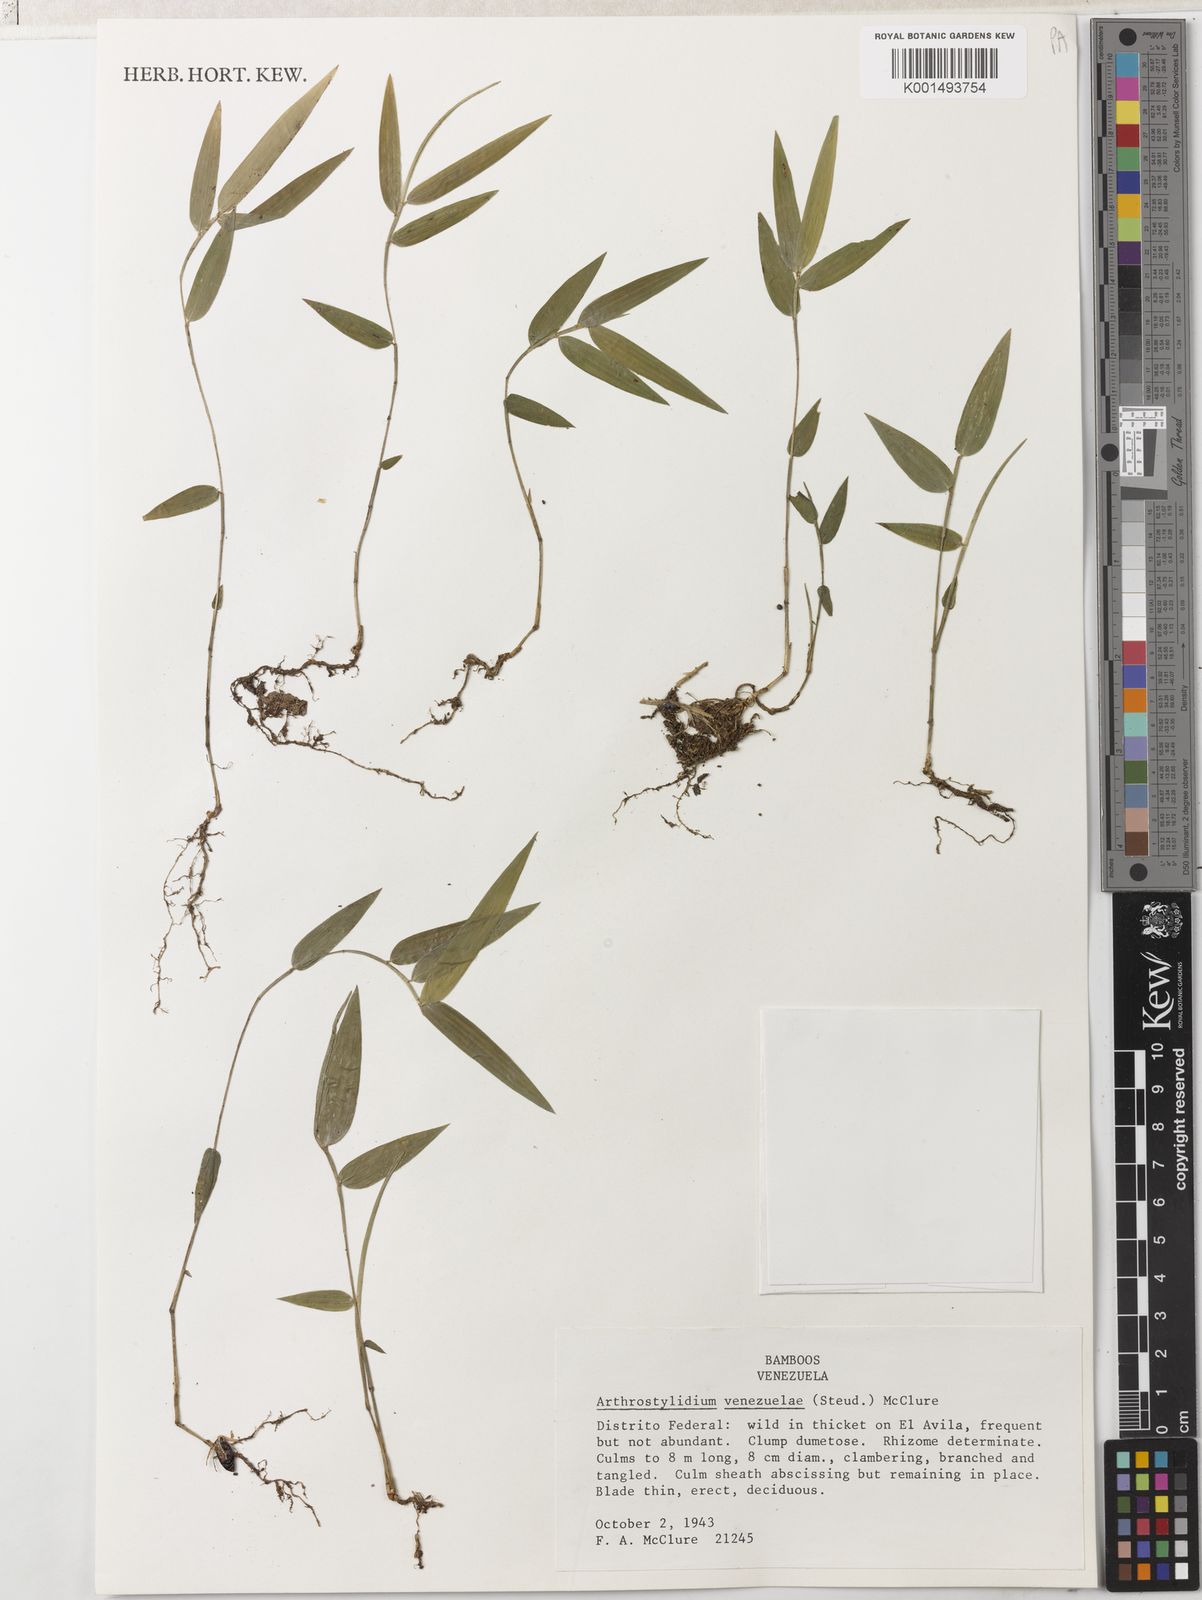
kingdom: Plantae
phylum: Tracheophyta
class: Liliopsida
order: Poales
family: Poaceae
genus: Arthrostylidium
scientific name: Arthrostylidium venezuelae
